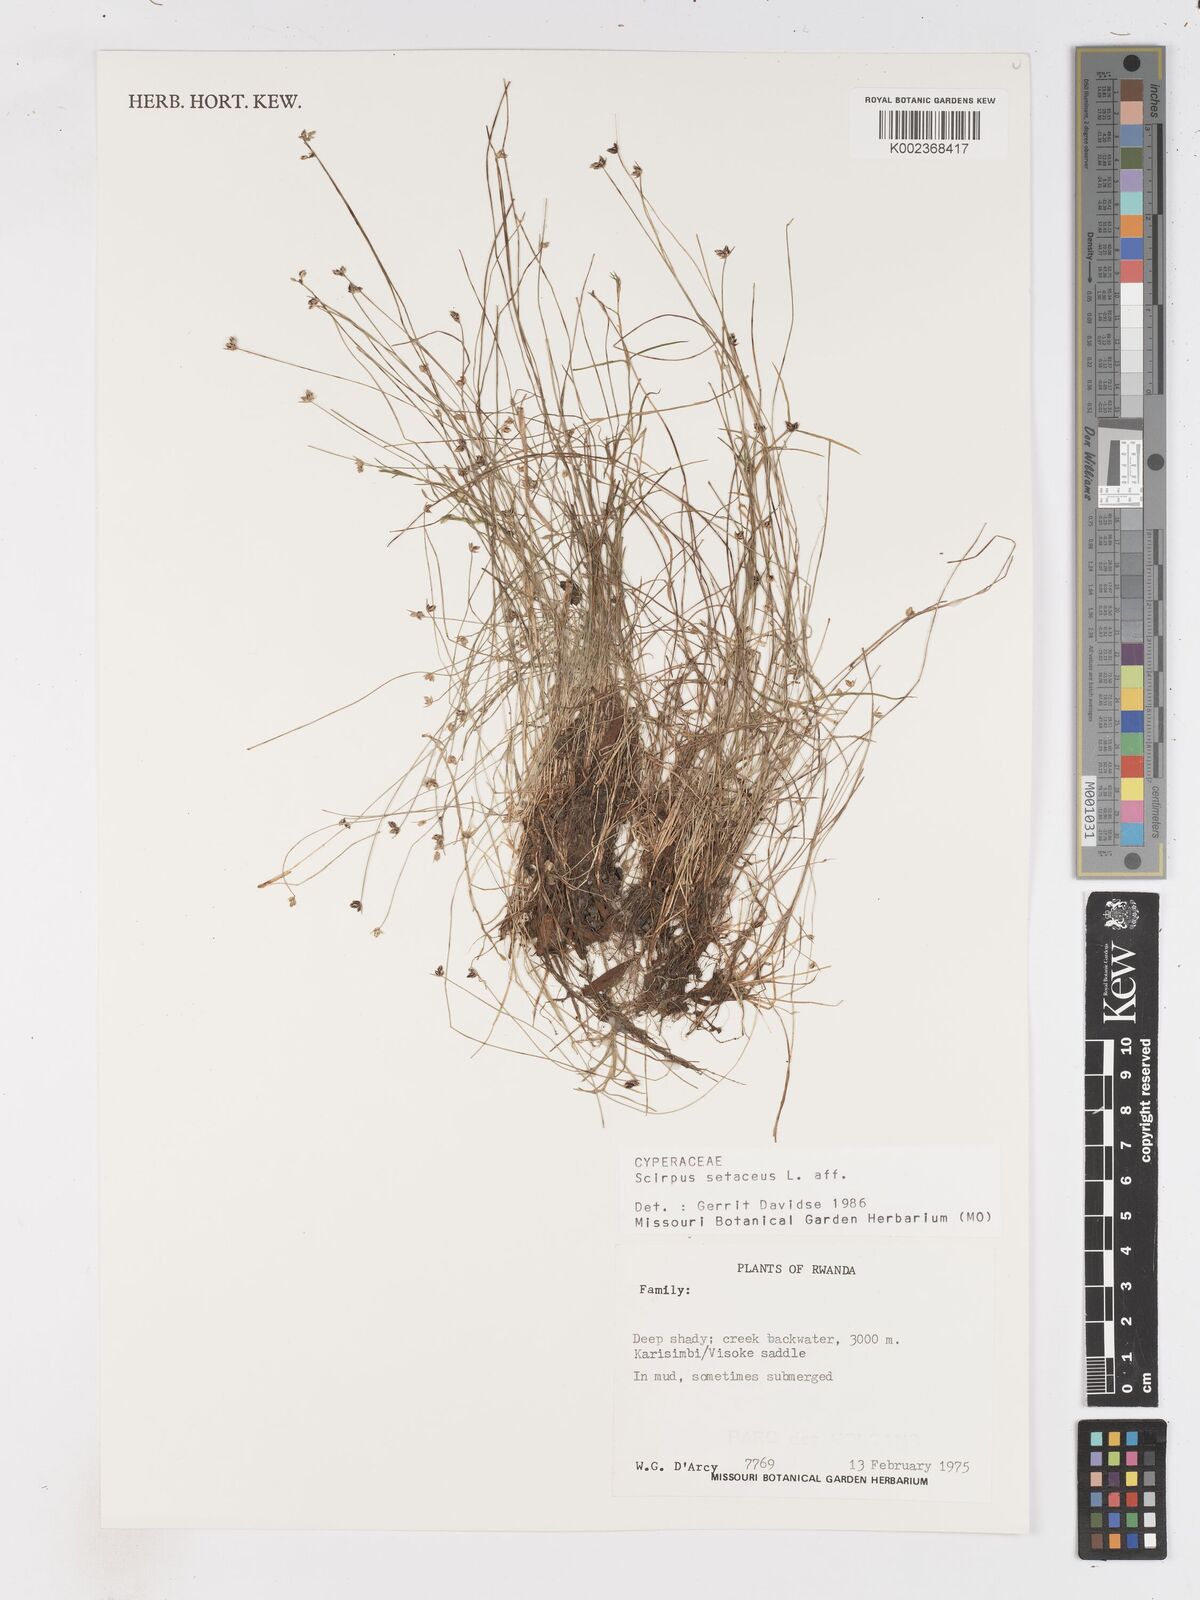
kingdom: Plantae
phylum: Tracheophyta
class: Liliopsida
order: Poales
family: Cyperaceae
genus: Isolepis
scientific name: Isolepis setacea
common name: Bristle club-rush
